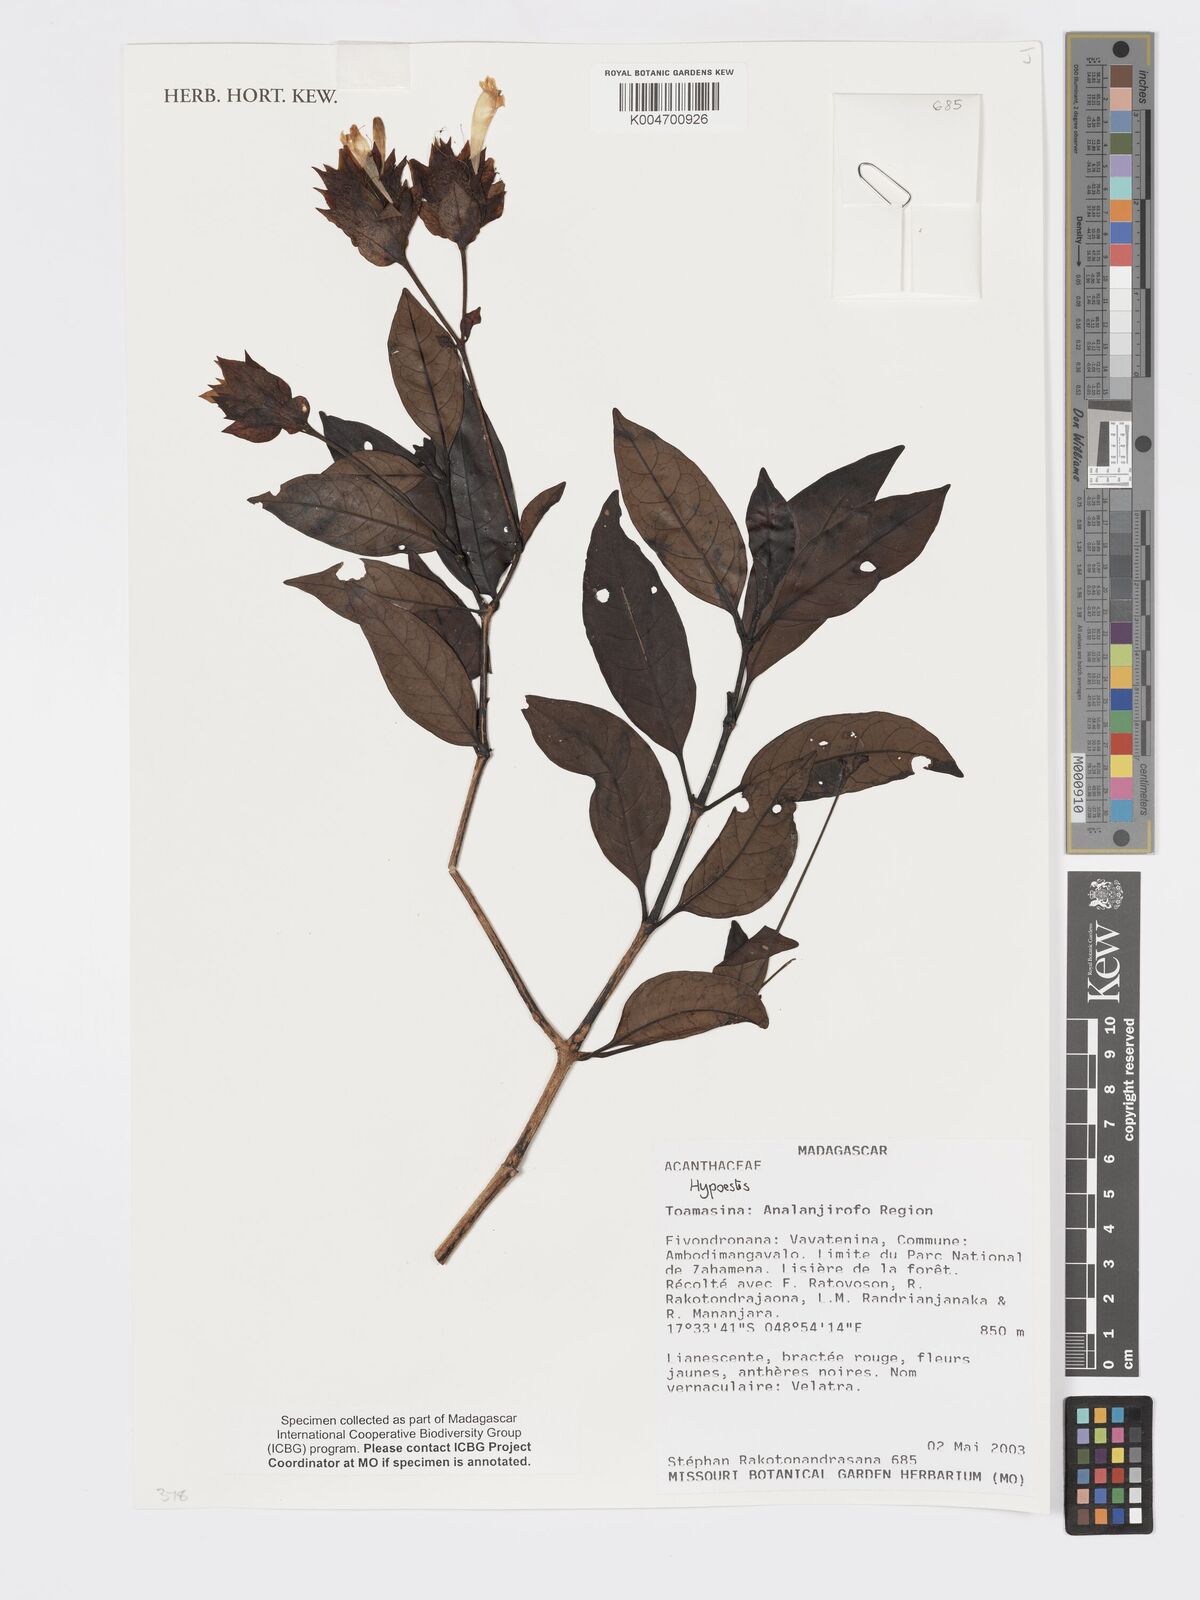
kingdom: Plantae
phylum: Tracheophyta
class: Magnoliopsida
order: Lamiales
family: Acanthaceae
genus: Hypoestes
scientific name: Hypoestes
